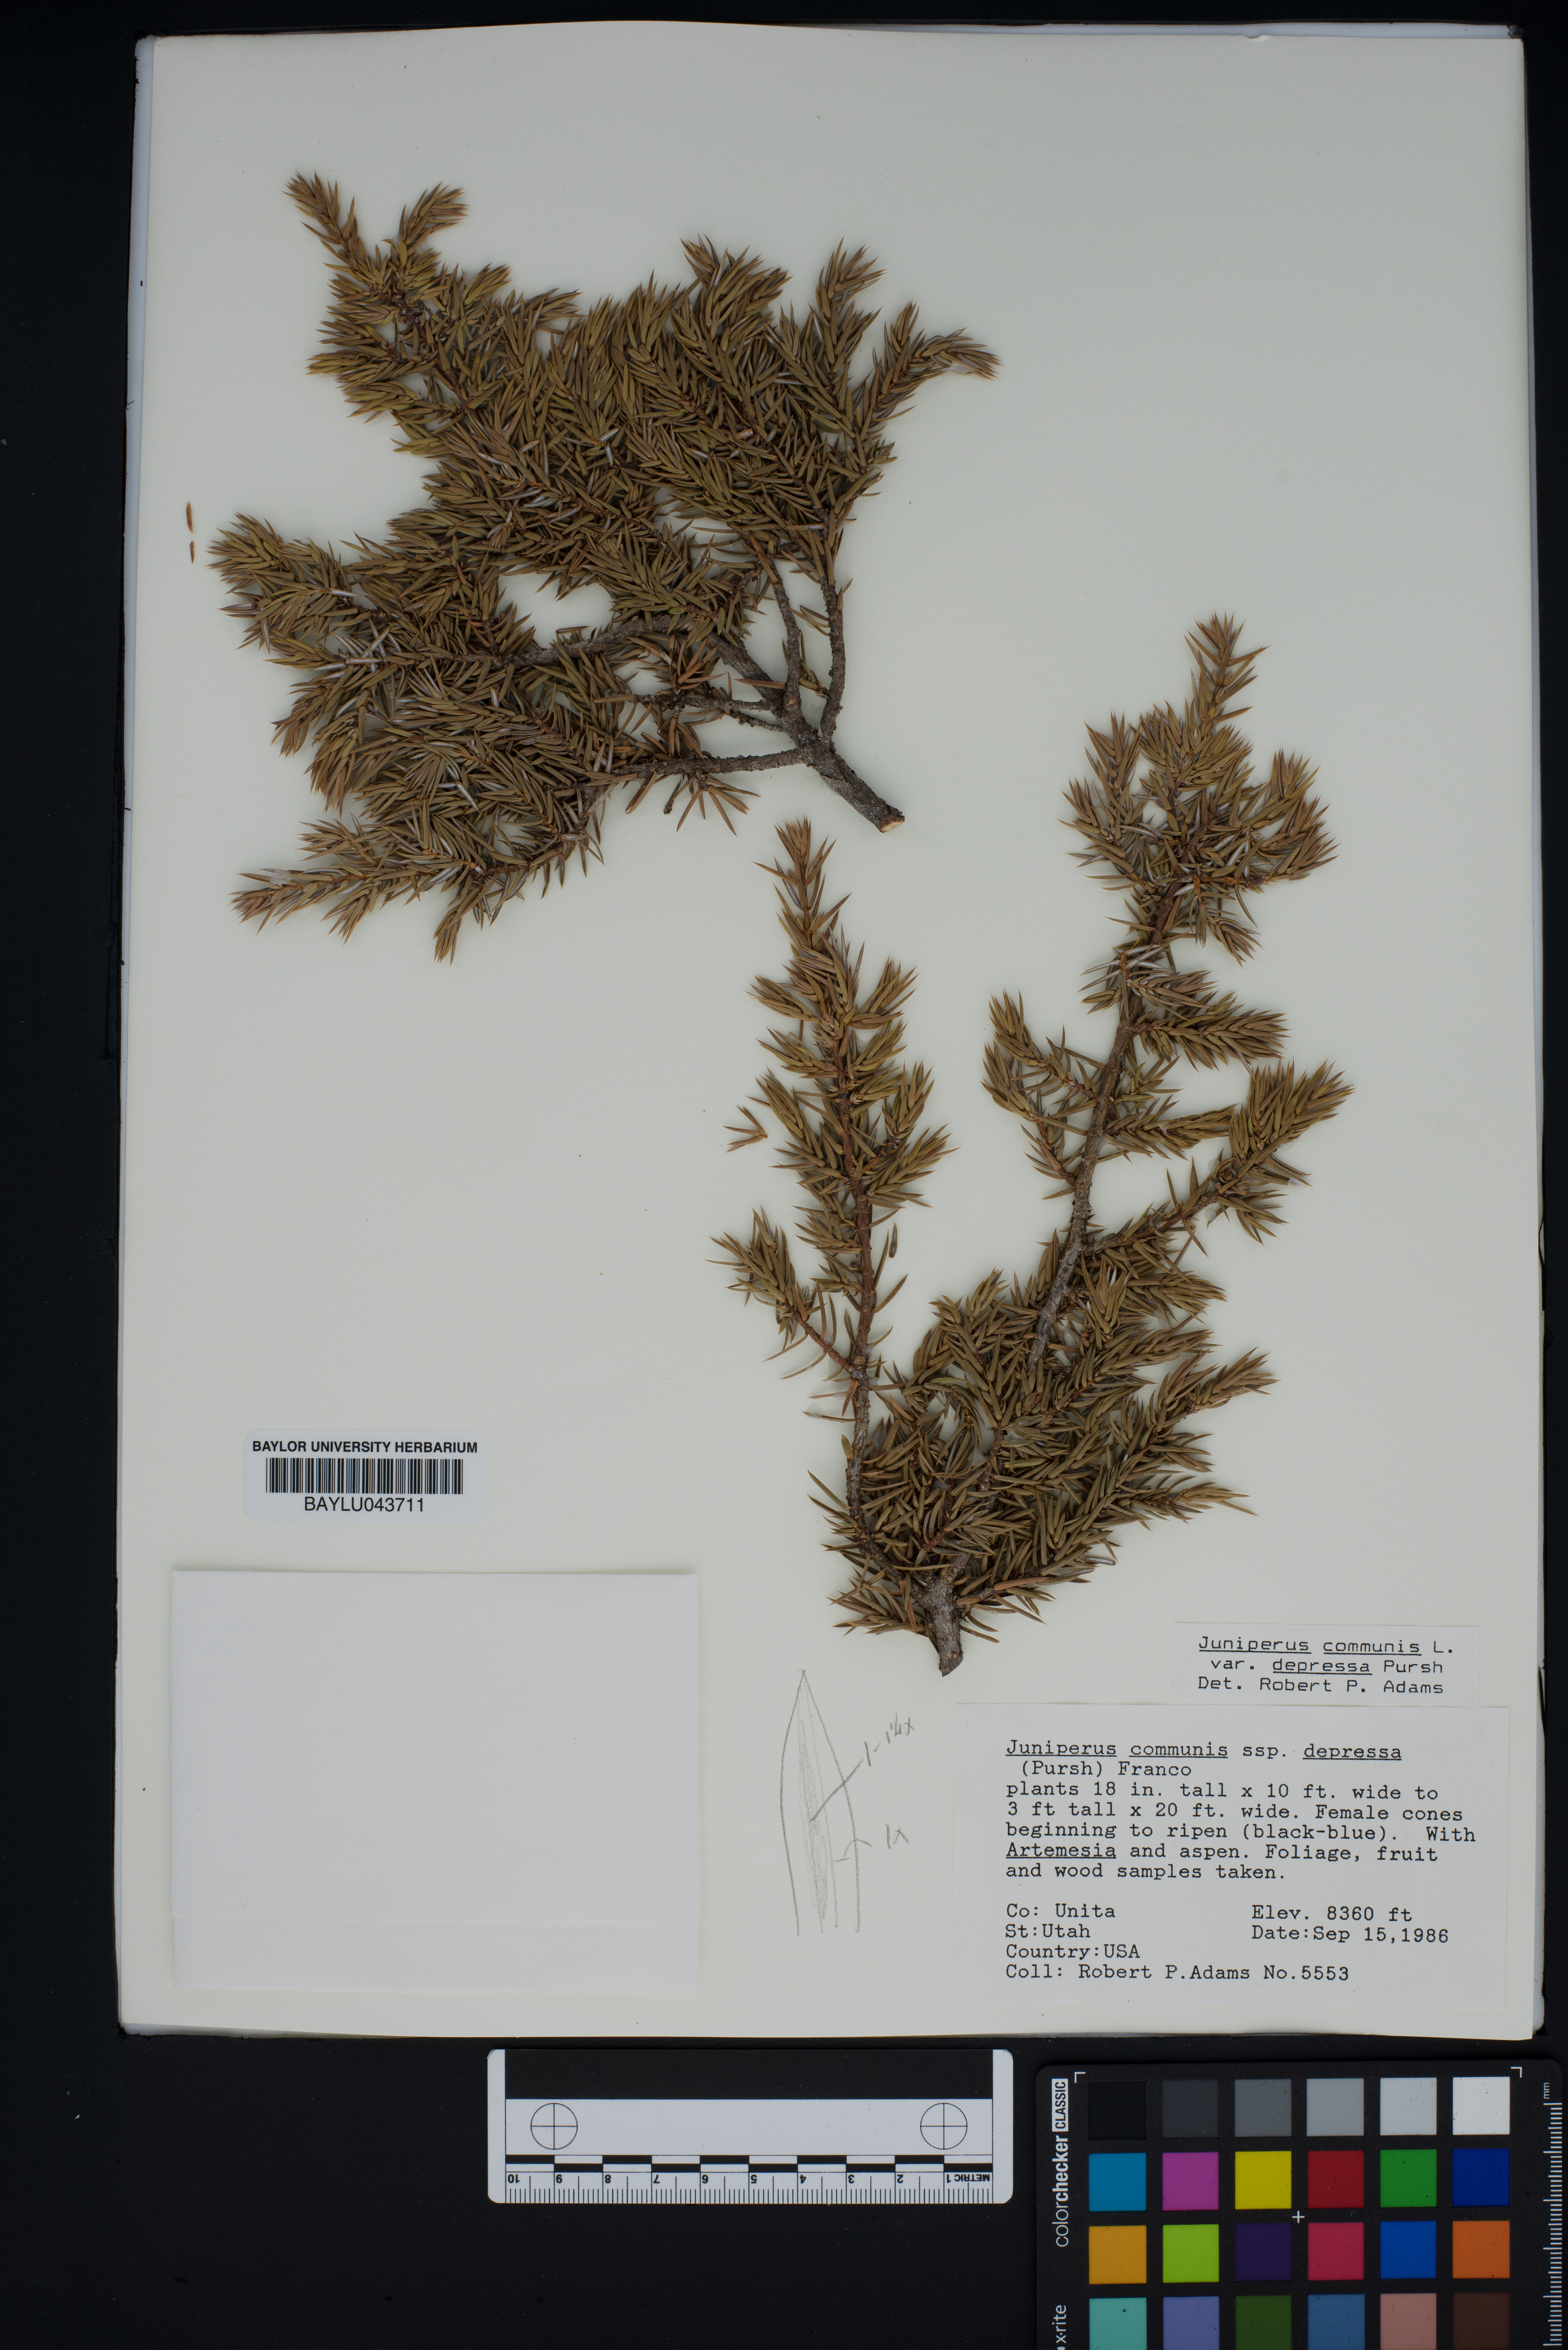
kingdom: Plantae
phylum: Tracheophyta
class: Pinopsida
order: Pinales
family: Cupressaceae
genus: Juniperus
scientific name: Juniperus communis
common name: Common juniper
